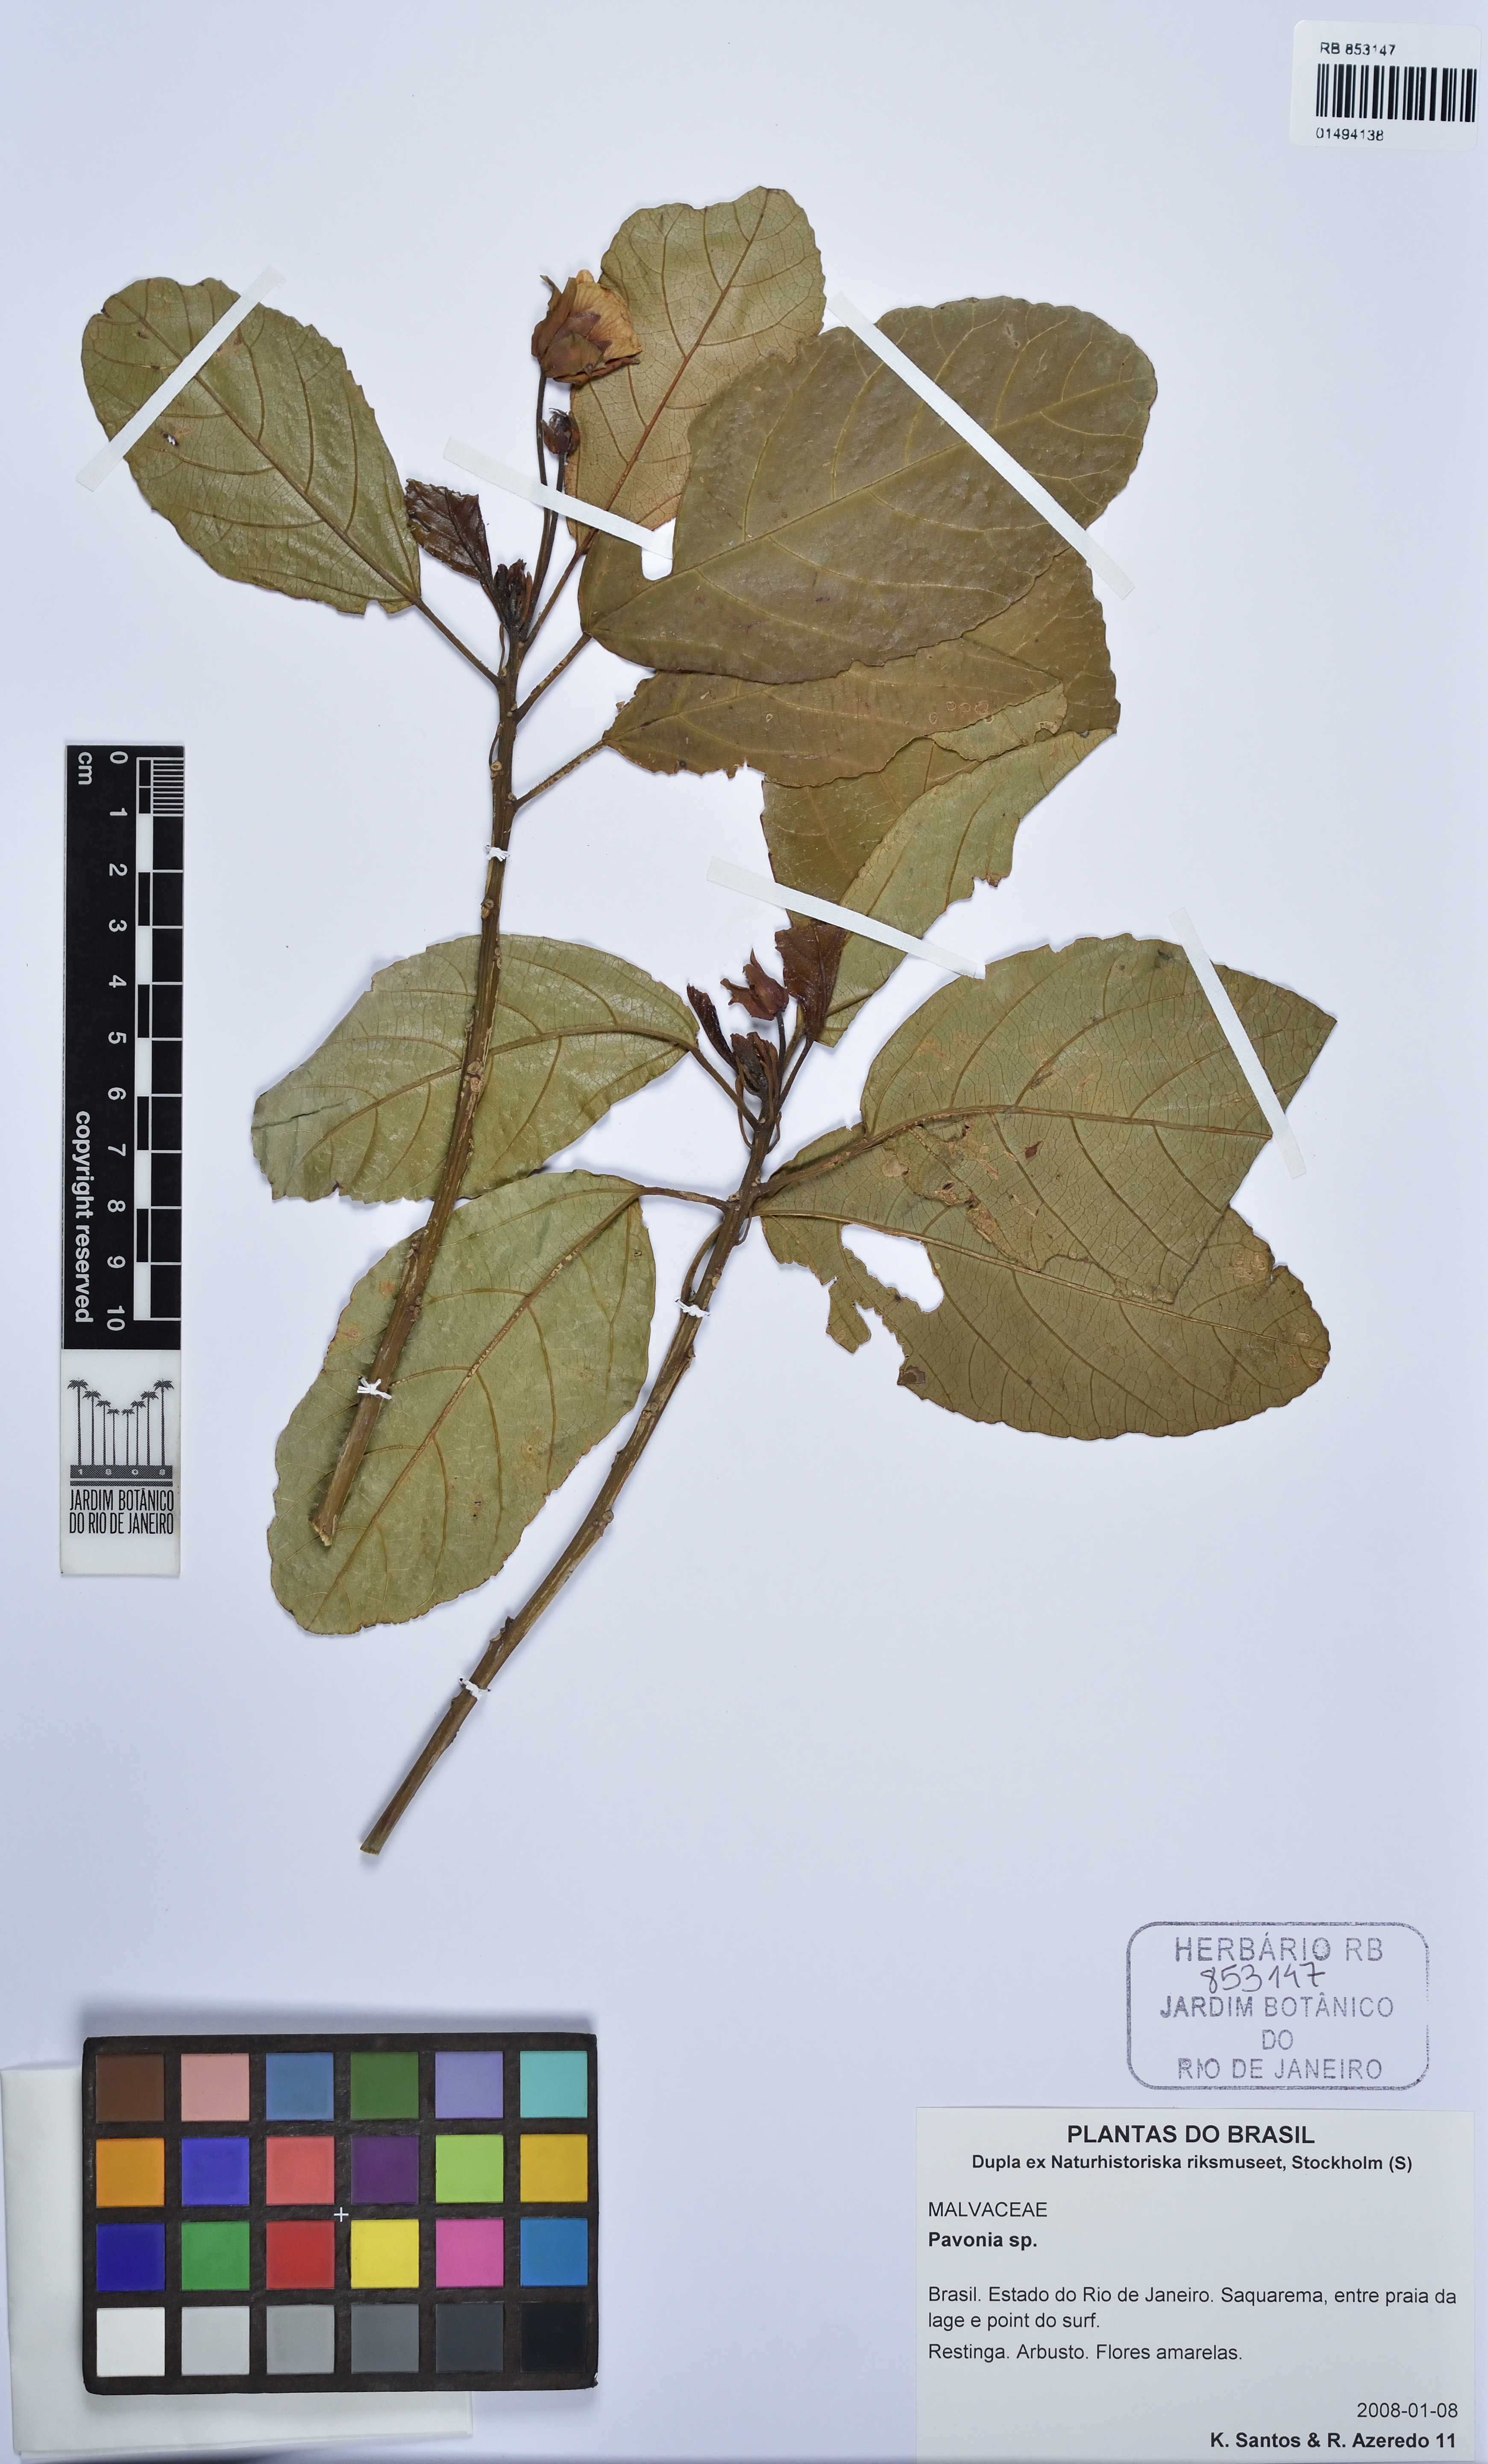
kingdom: Plantae
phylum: Tracheophyta
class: Magnoliopsida
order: Malvales
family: Malvaceae
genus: Pavonia
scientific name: Pavonia
